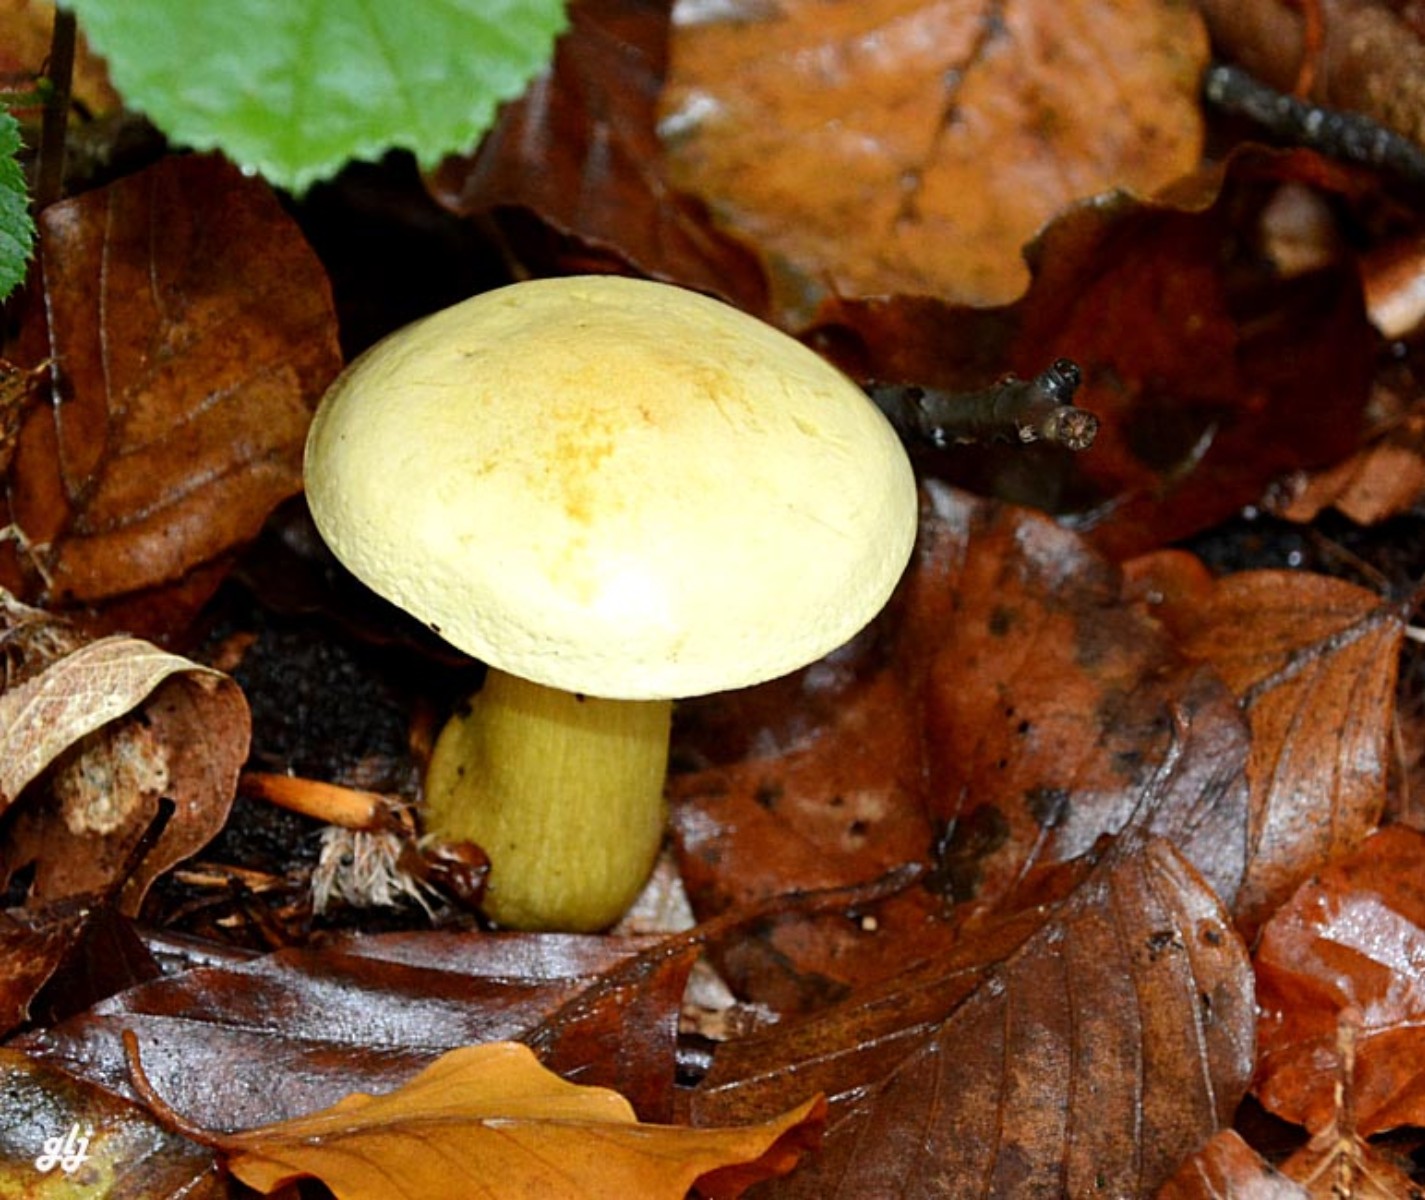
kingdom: Fungi
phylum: Basidiomycota
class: Agaricomycetes
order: Agaricales
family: Tricholomataceae
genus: Tricholoma
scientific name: Tricholoma sulphureum
